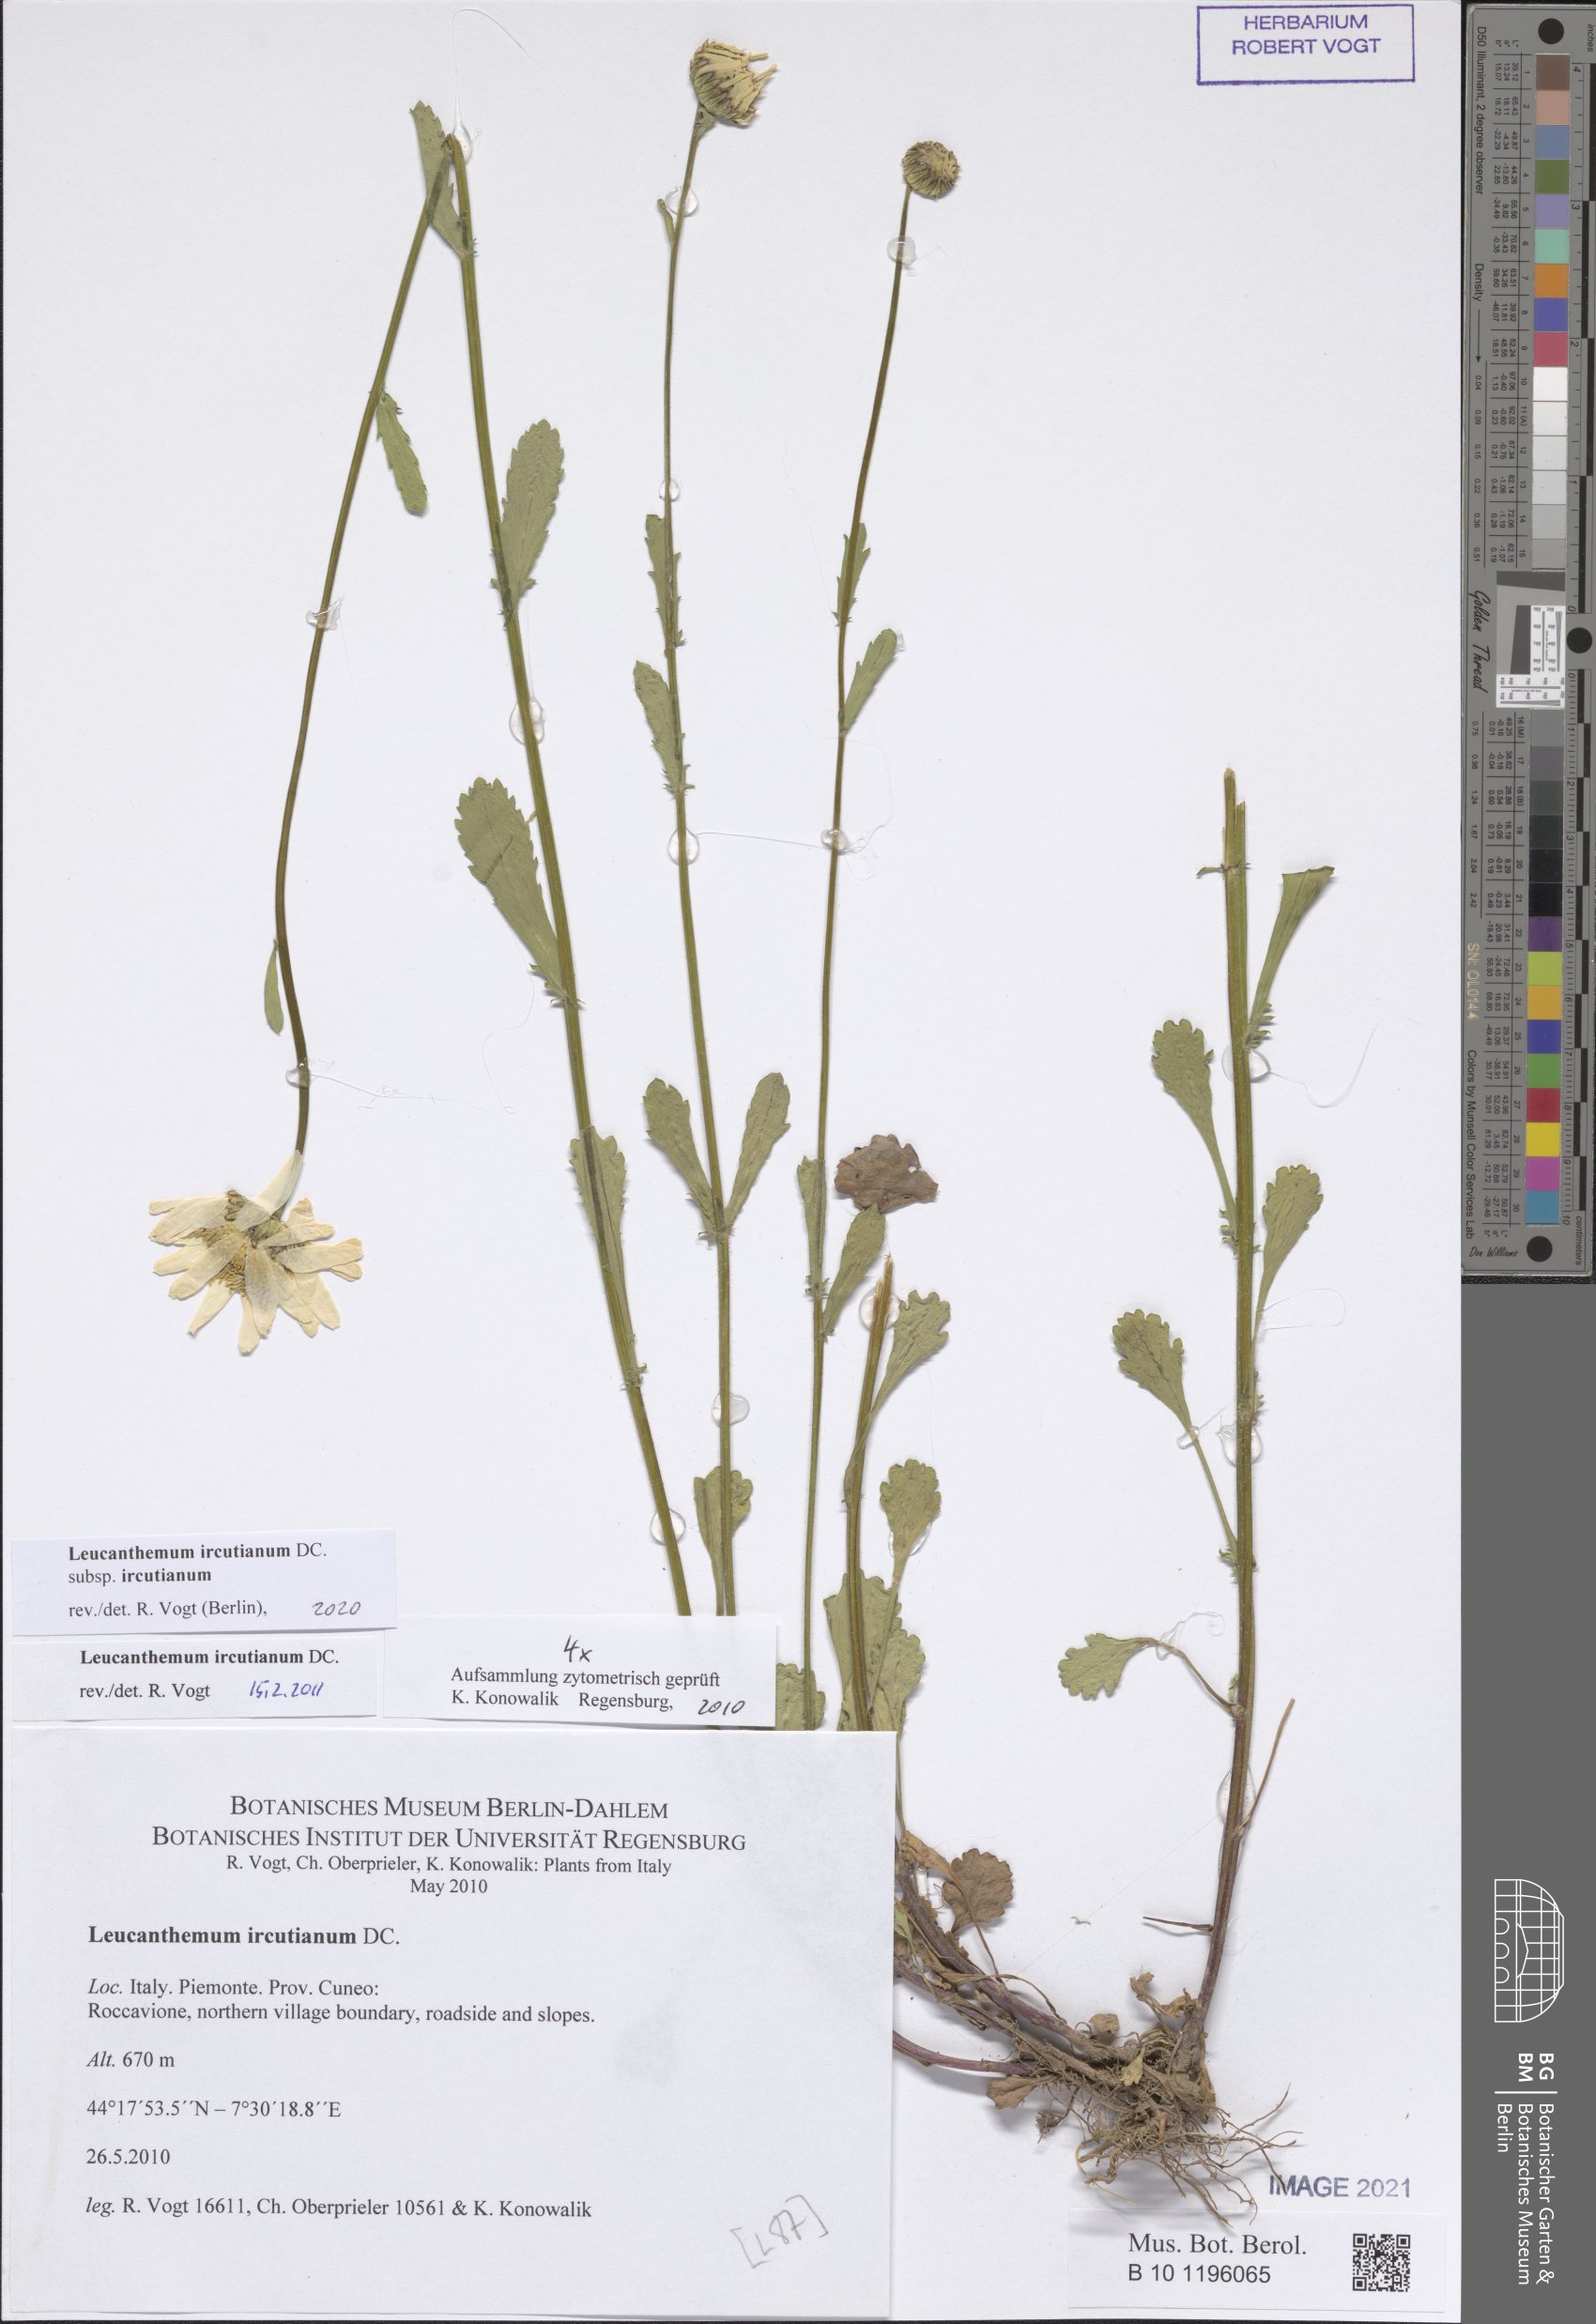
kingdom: Plantae
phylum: Tracheophyta
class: Magnoliopsida
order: Asterales
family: Asteraceae
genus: Leucanthemum
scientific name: Leucanthemum ircutianum
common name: Daisy
